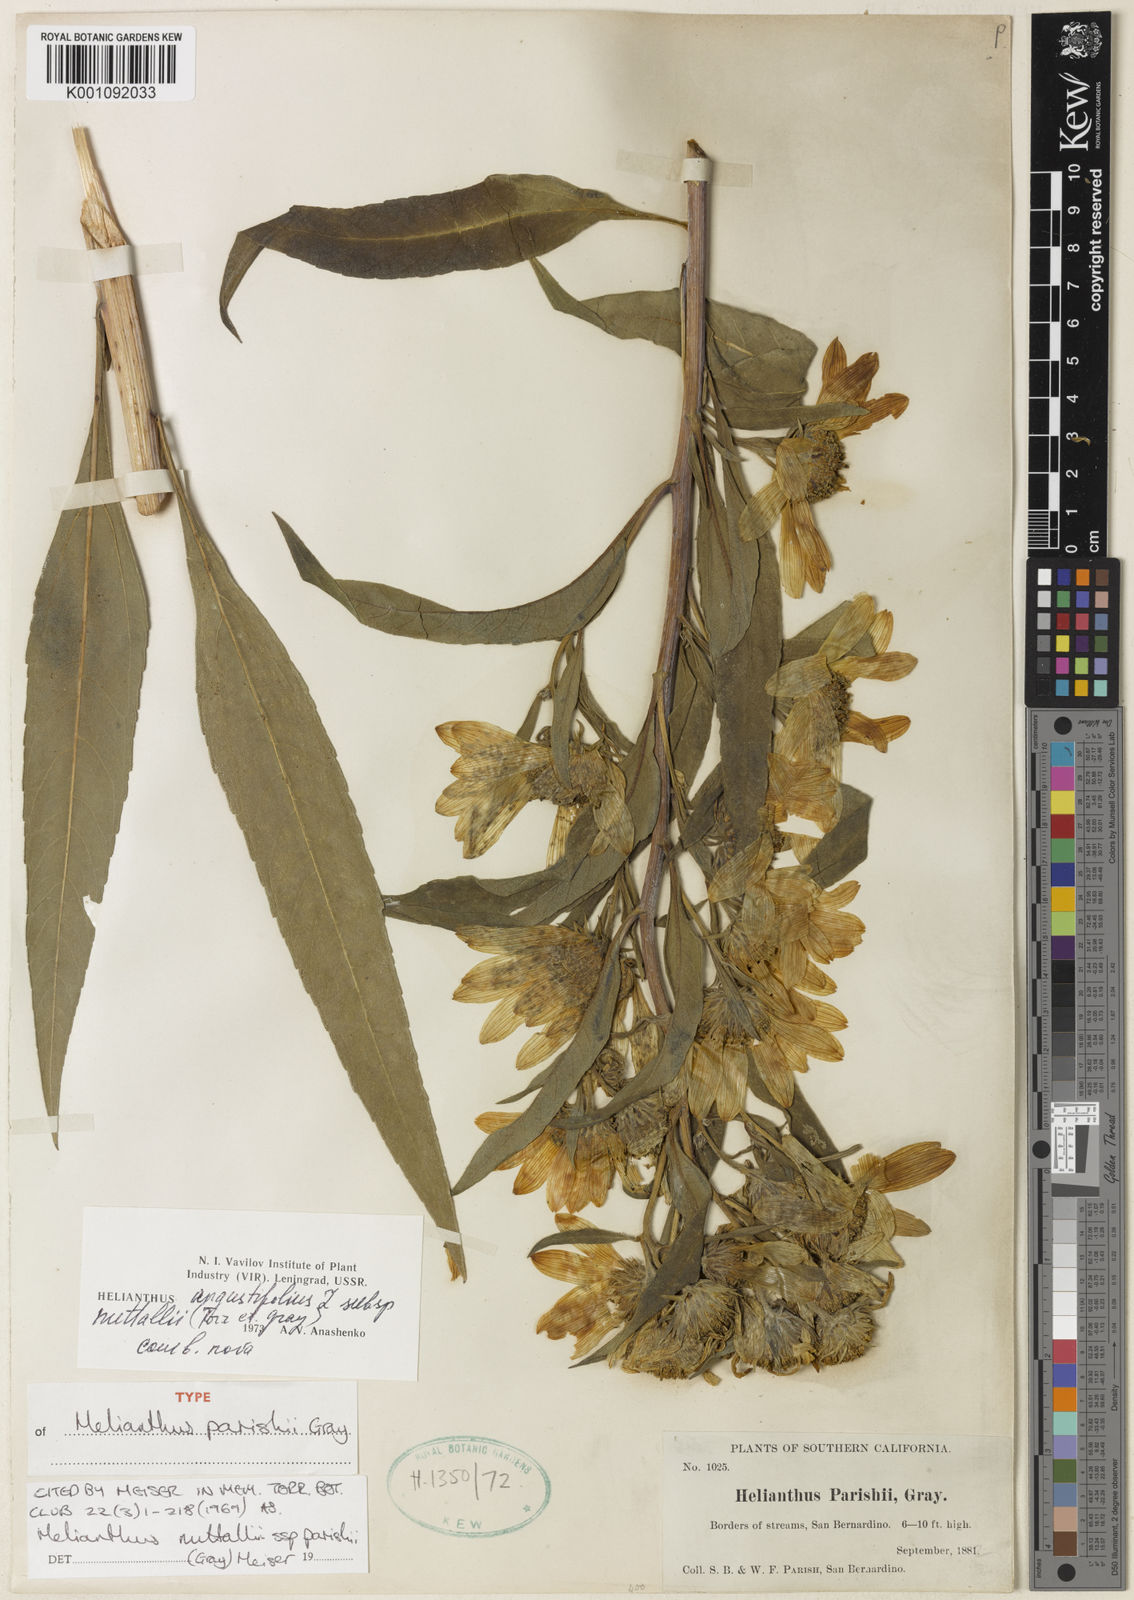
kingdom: Plantae
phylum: Tracheophyta
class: Magnoliopsida
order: Asterales
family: Asteraceae
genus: Helianthus
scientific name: Helianthus maximiliani
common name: Maximilian's sunflower
